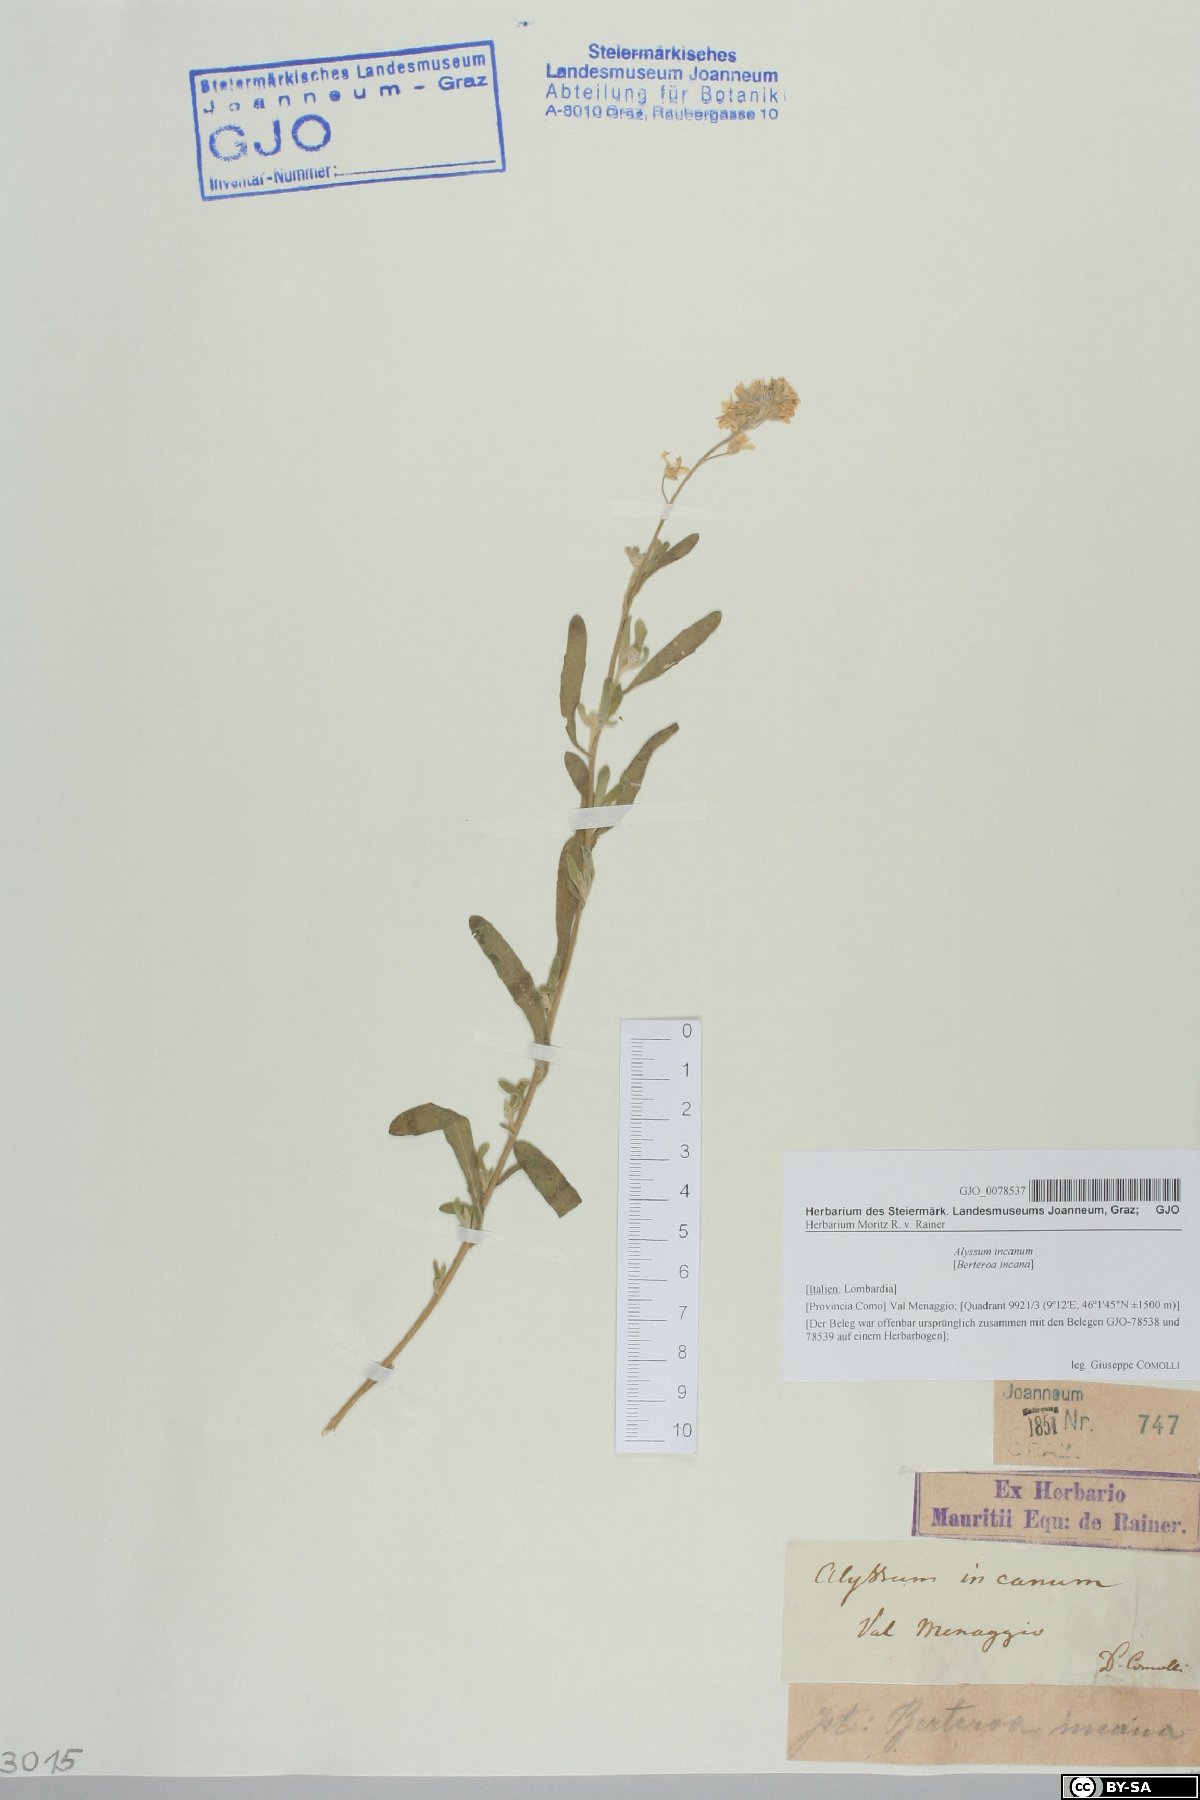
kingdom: Plantae
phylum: Tracheophyta
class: Magnoliopsida
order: Brassicales
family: Brassicaceae
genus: Berteroa
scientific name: Berteroa incana
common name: Hoary alison
